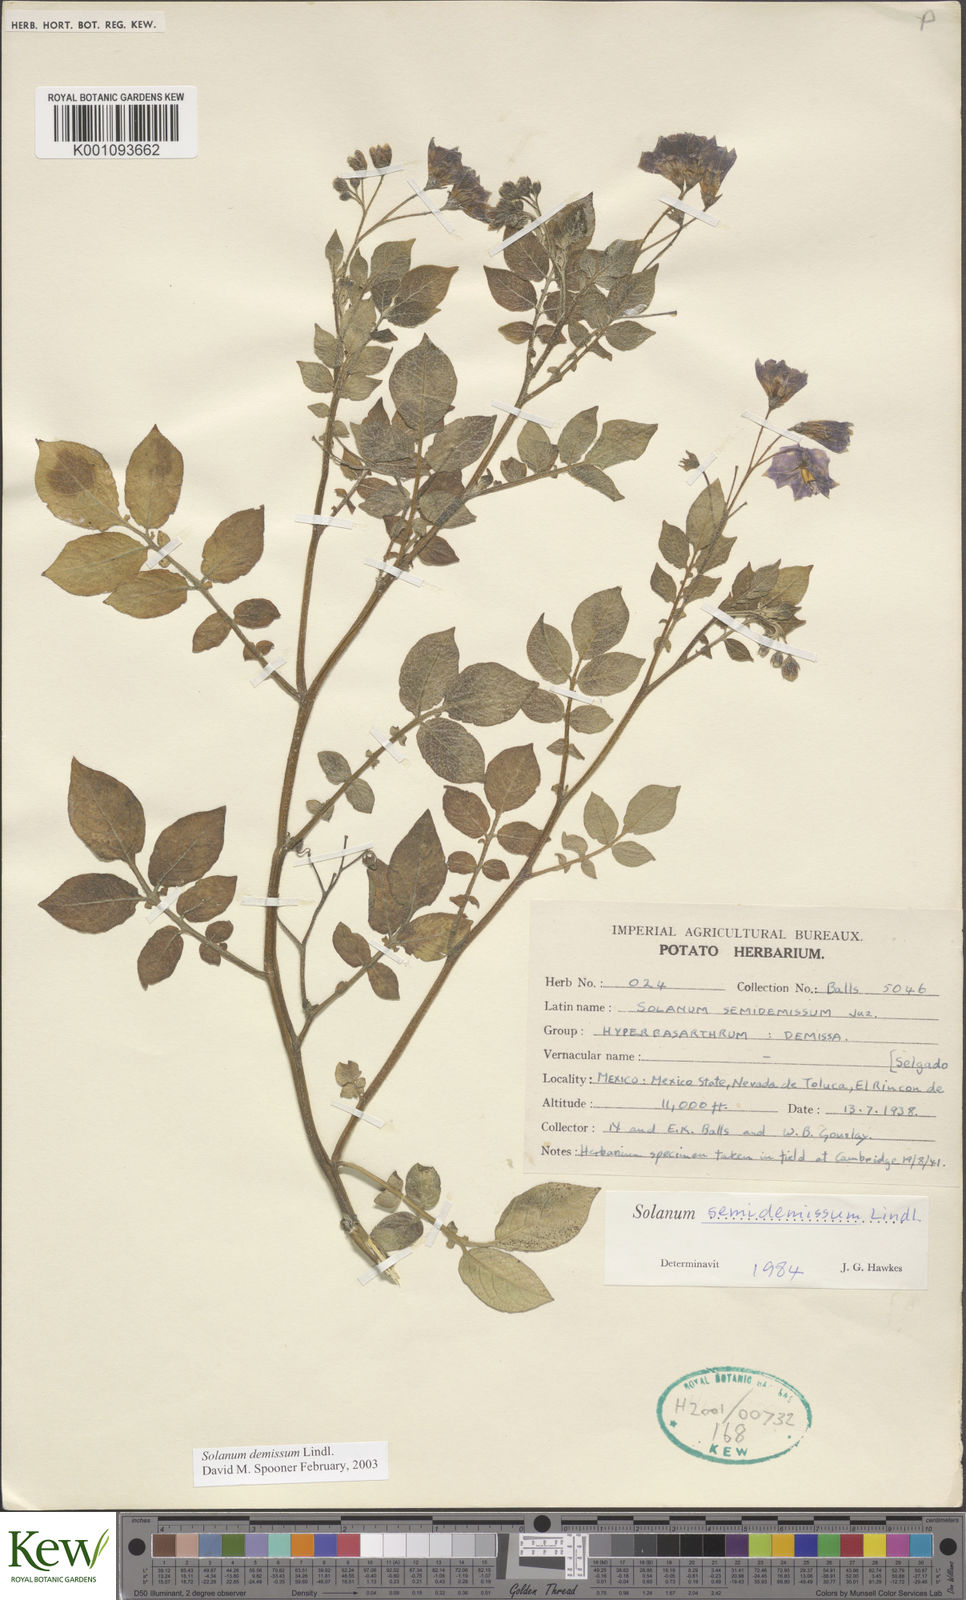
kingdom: Plantae
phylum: Tracheophyta
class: Magnoliopsida
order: Solanales
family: Solanaceae
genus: Solanum
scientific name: Solanum demissum
